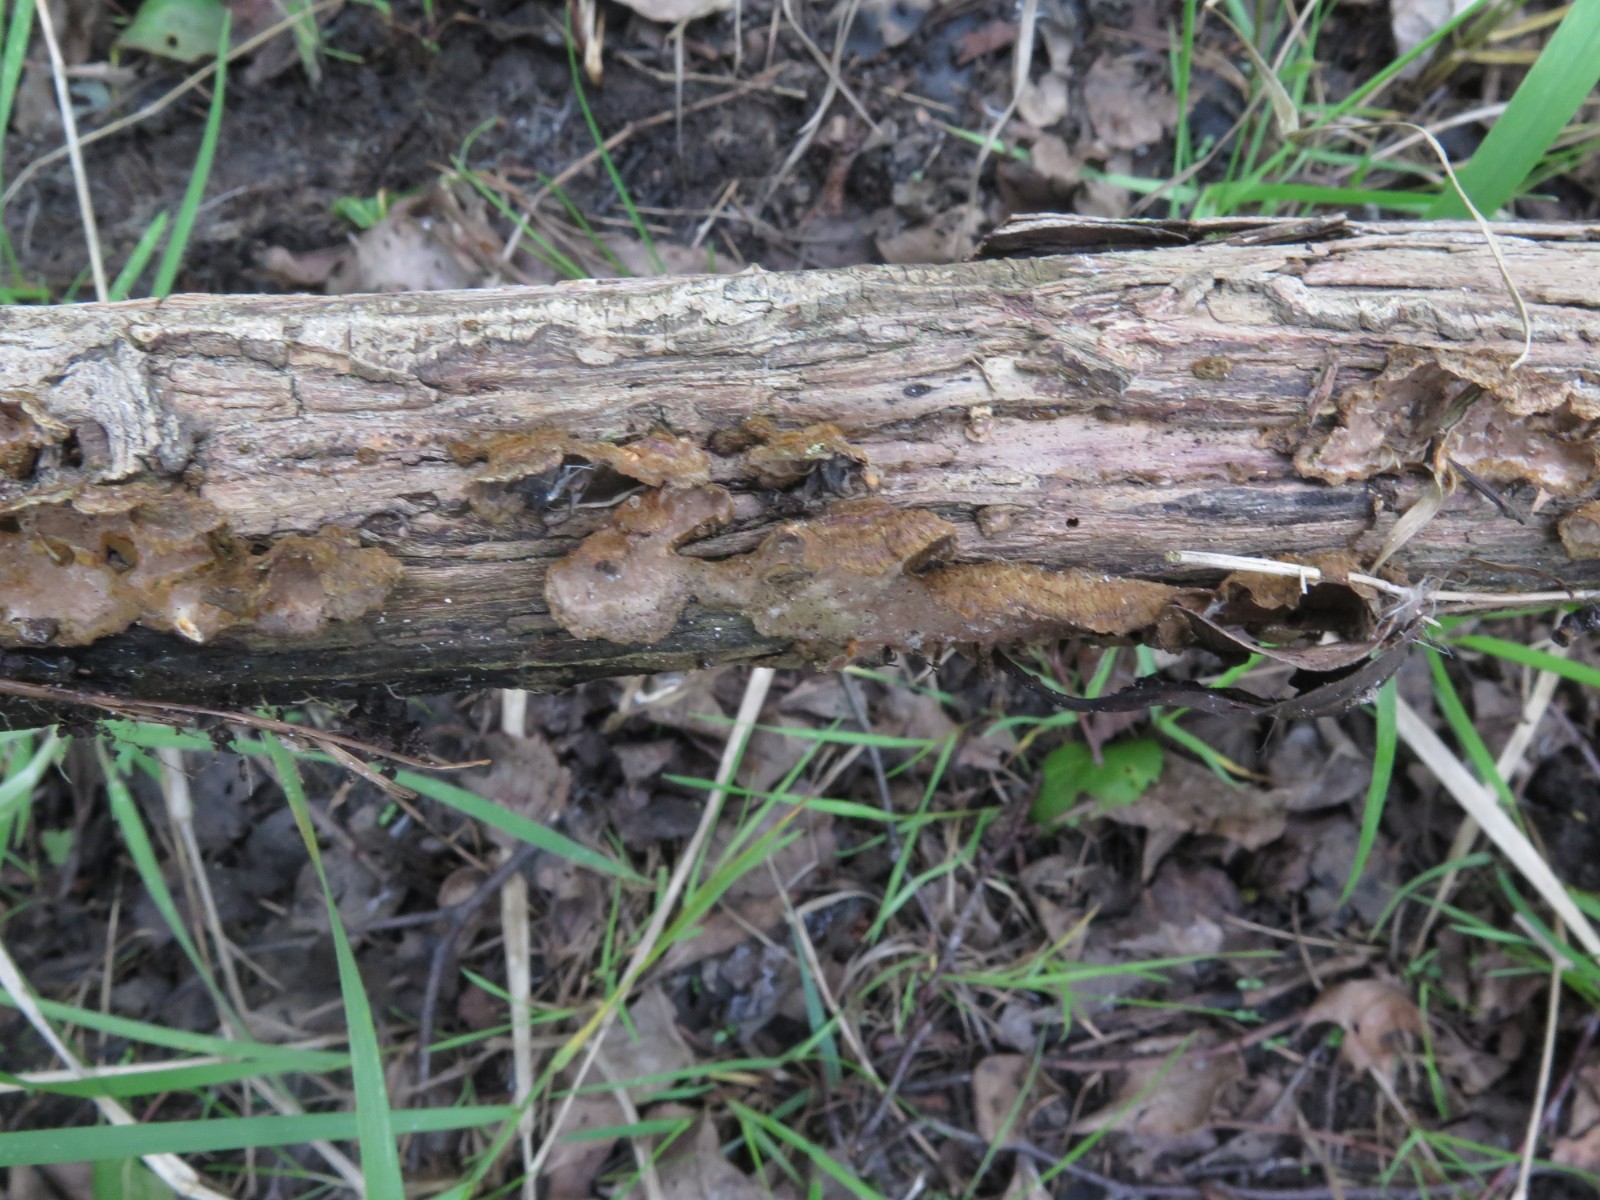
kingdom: Fungi
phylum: Basidiomycota
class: Agaricomycetes
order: Hymenochaetales
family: Hymenochaetaceae
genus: Hydnoporia
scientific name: Hydnoporia tabacina
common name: tobaksbrun ruslædersvamp
